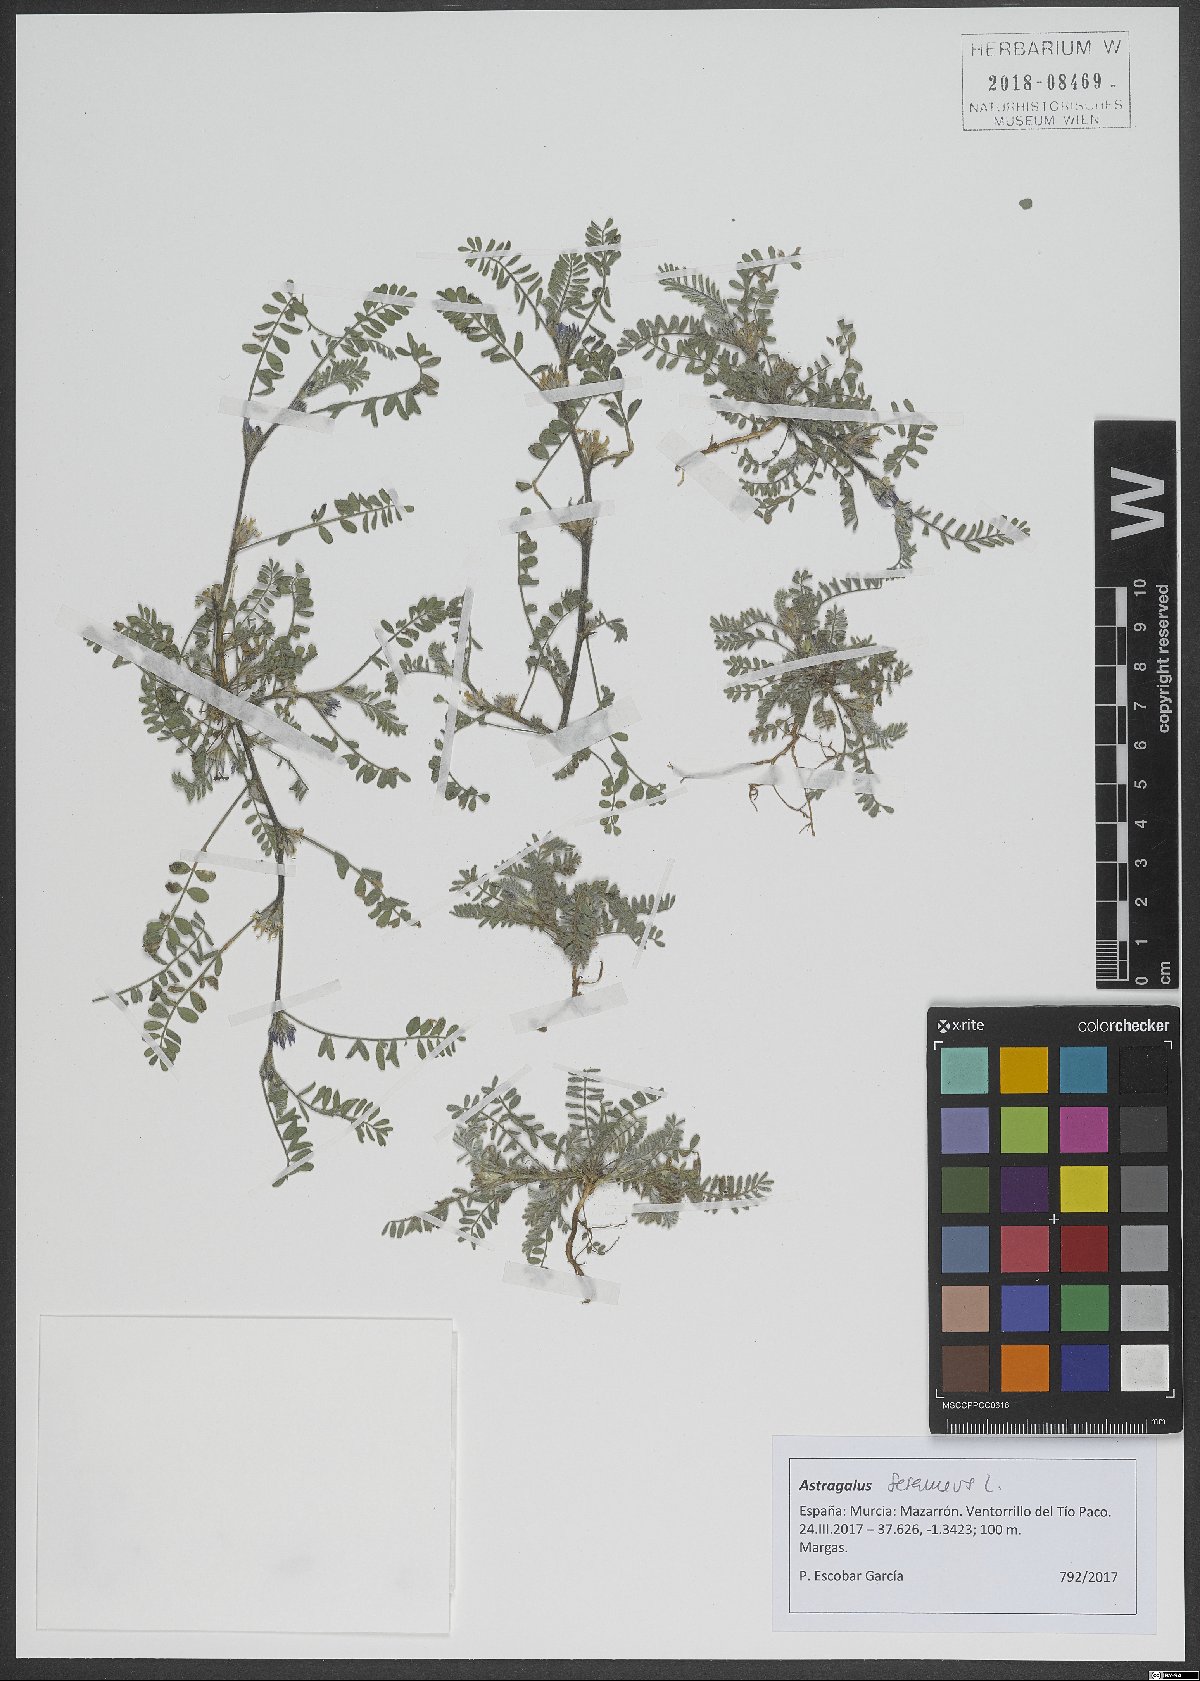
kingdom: Plantae
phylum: Tracheophyta
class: Magnoliopsida
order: Fabales
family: Fabaceae
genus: Astragalus
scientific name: Astragalus sesameus
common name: Purple milk-vetch
